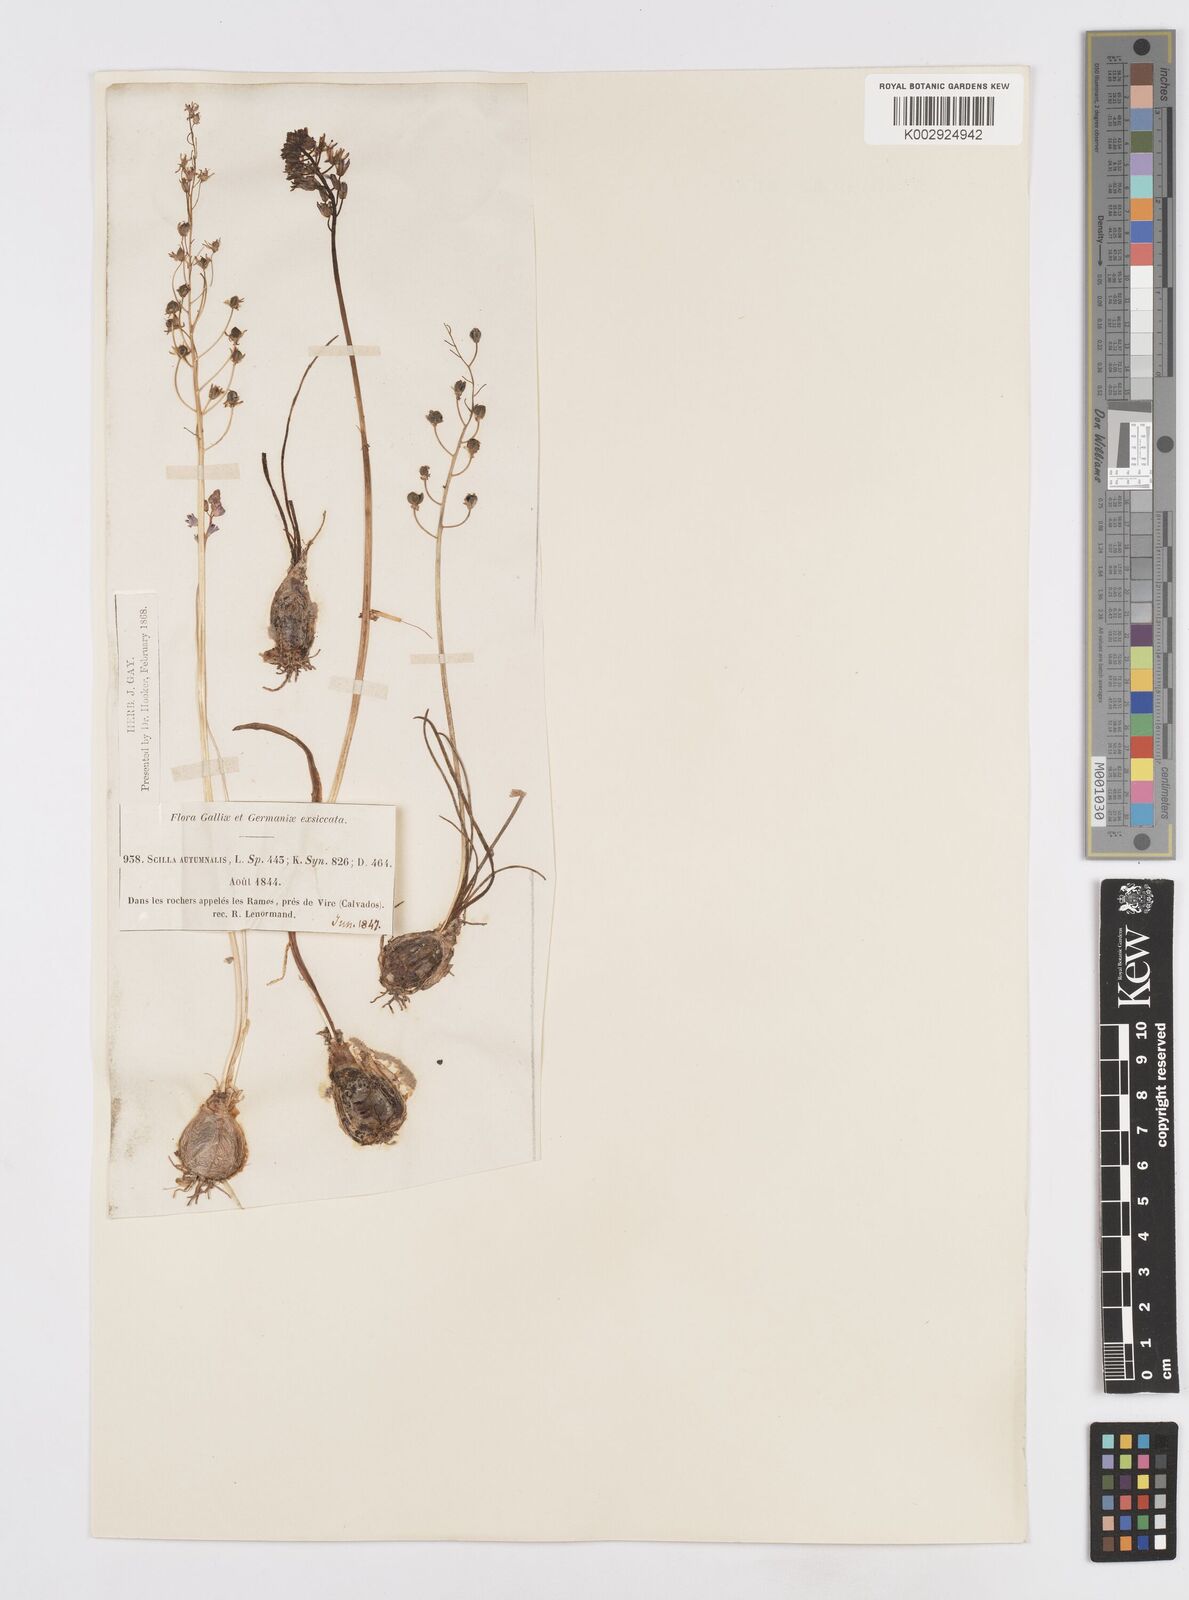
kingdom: Plantae
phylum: Tracheophyta
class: Liliopsida
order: Asparagales
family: Asparagaceae
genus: Prospero
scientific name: Prospero autumnale
